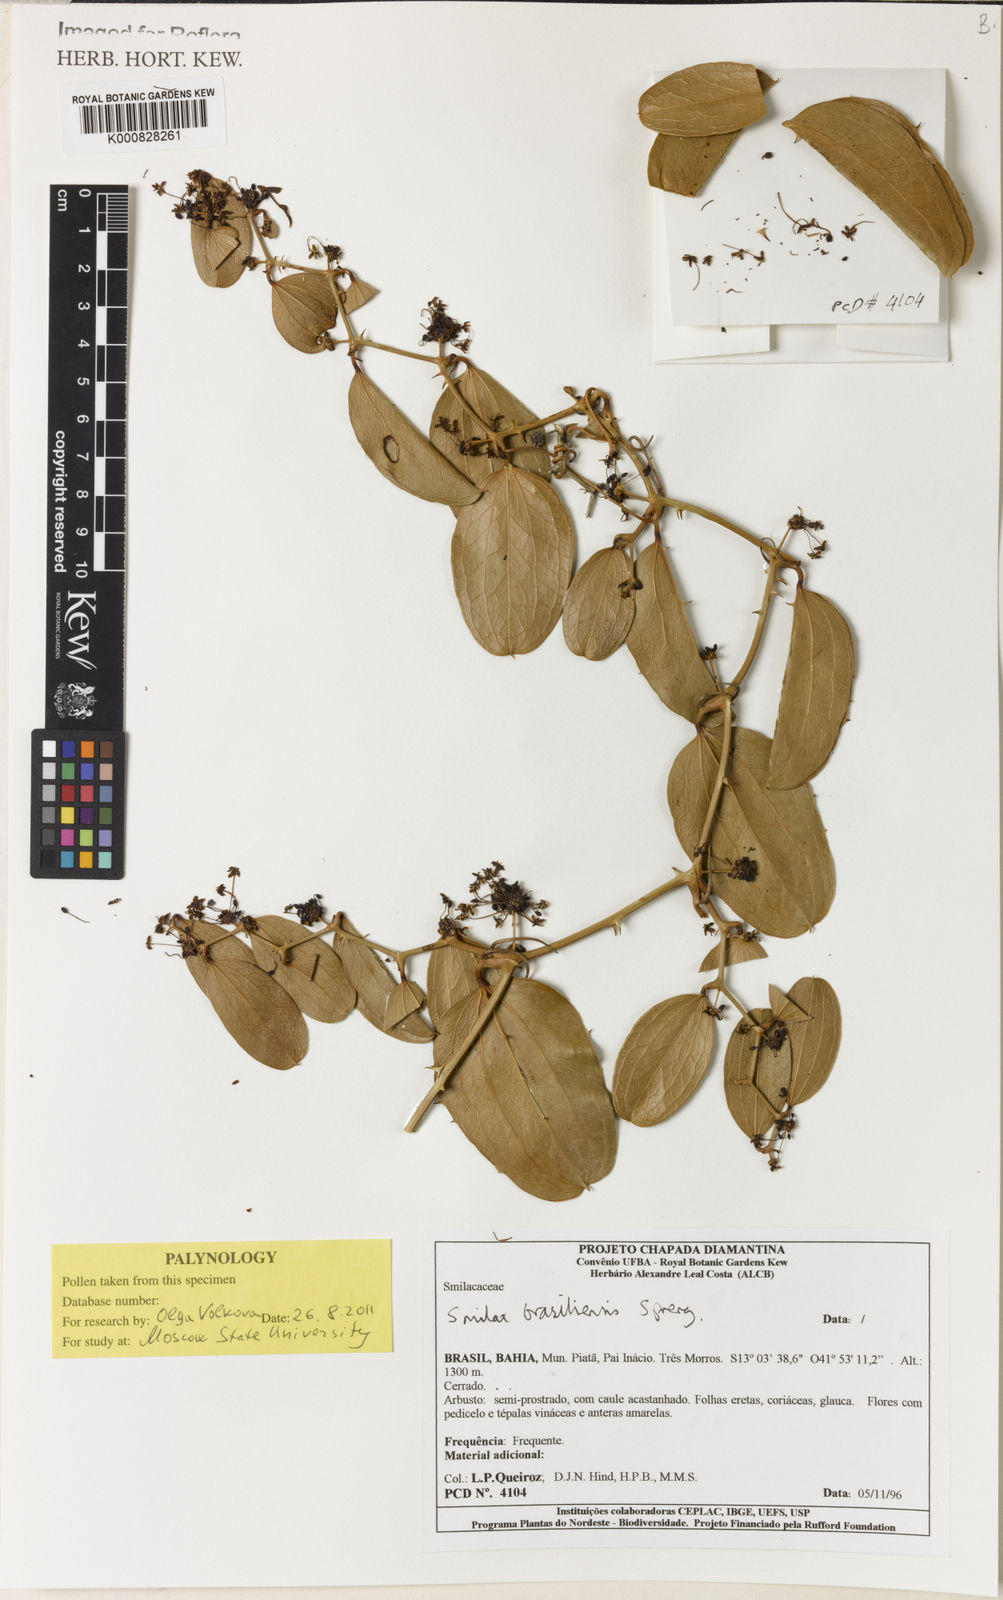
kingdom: Plantae
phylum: Tracheophyta
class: Liliopsida
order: Liliales
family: Smilacaceae
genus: Smilax
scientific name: Smilax brasiliensis
